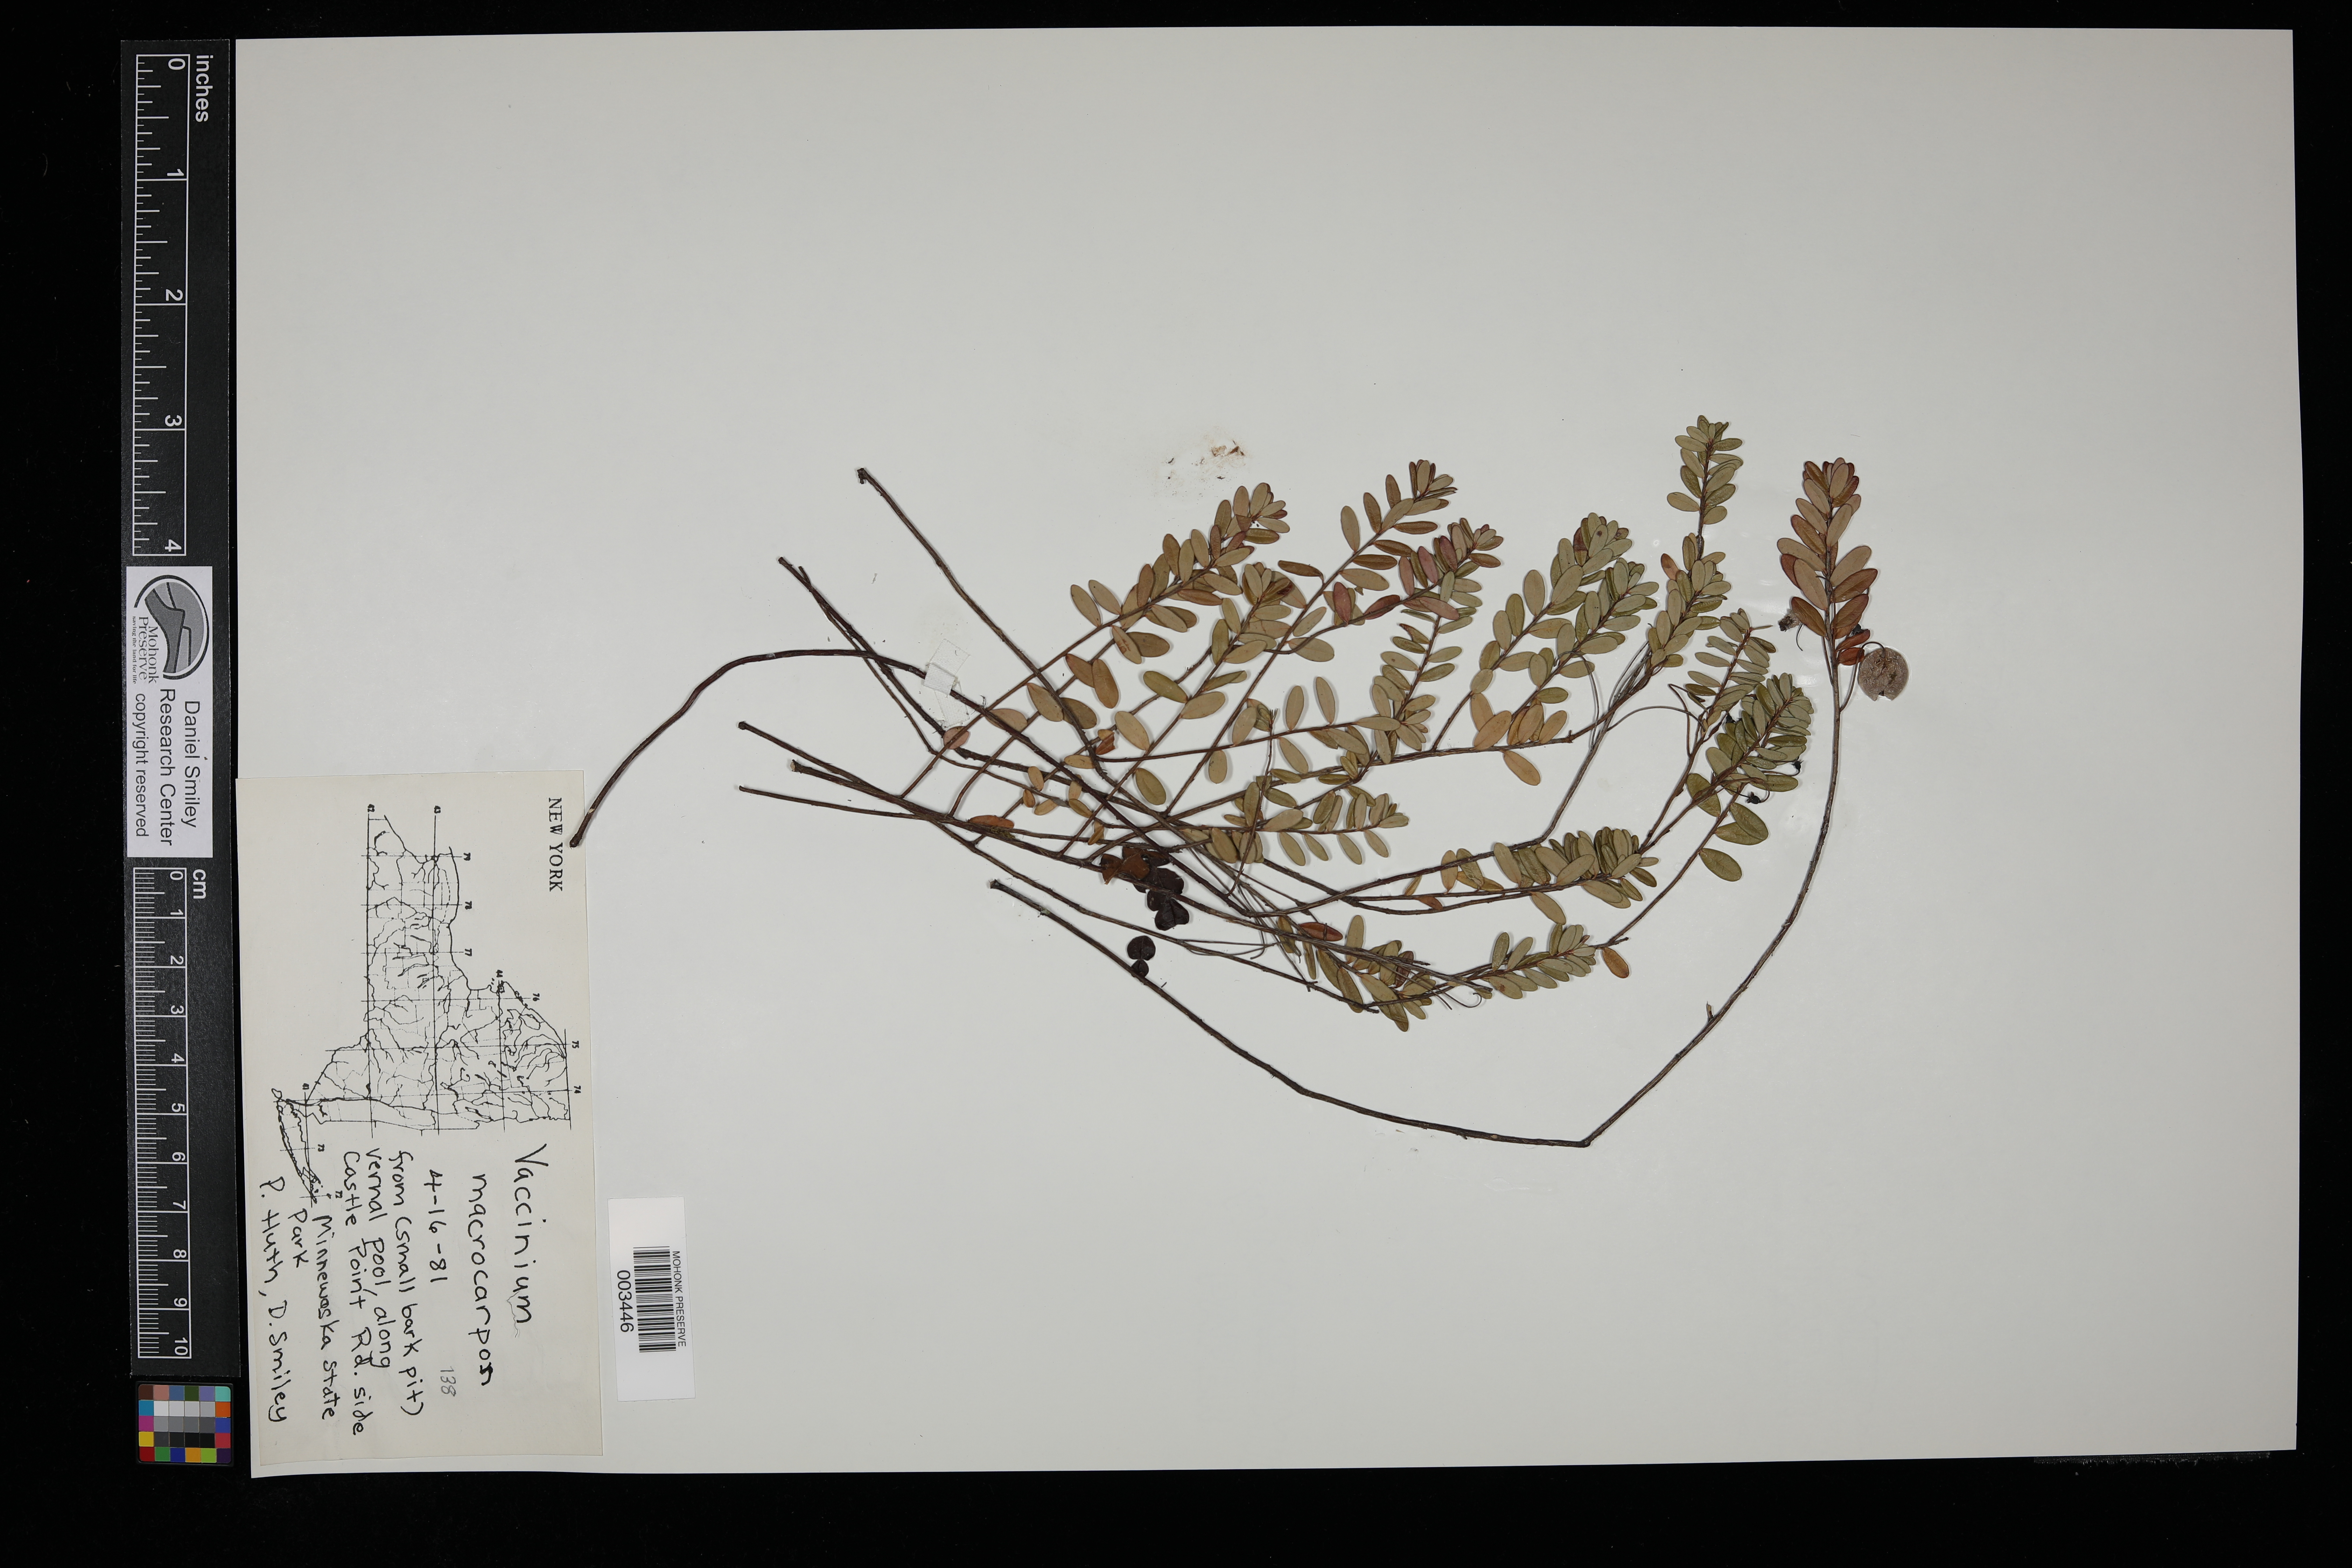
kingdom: Plantae
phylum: Tracheophyta
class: Magnoliopsida
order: Ericales
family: Ericaceae
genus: Vaccinium
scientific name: Vaccinium macrocarpon
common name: American cranberry
